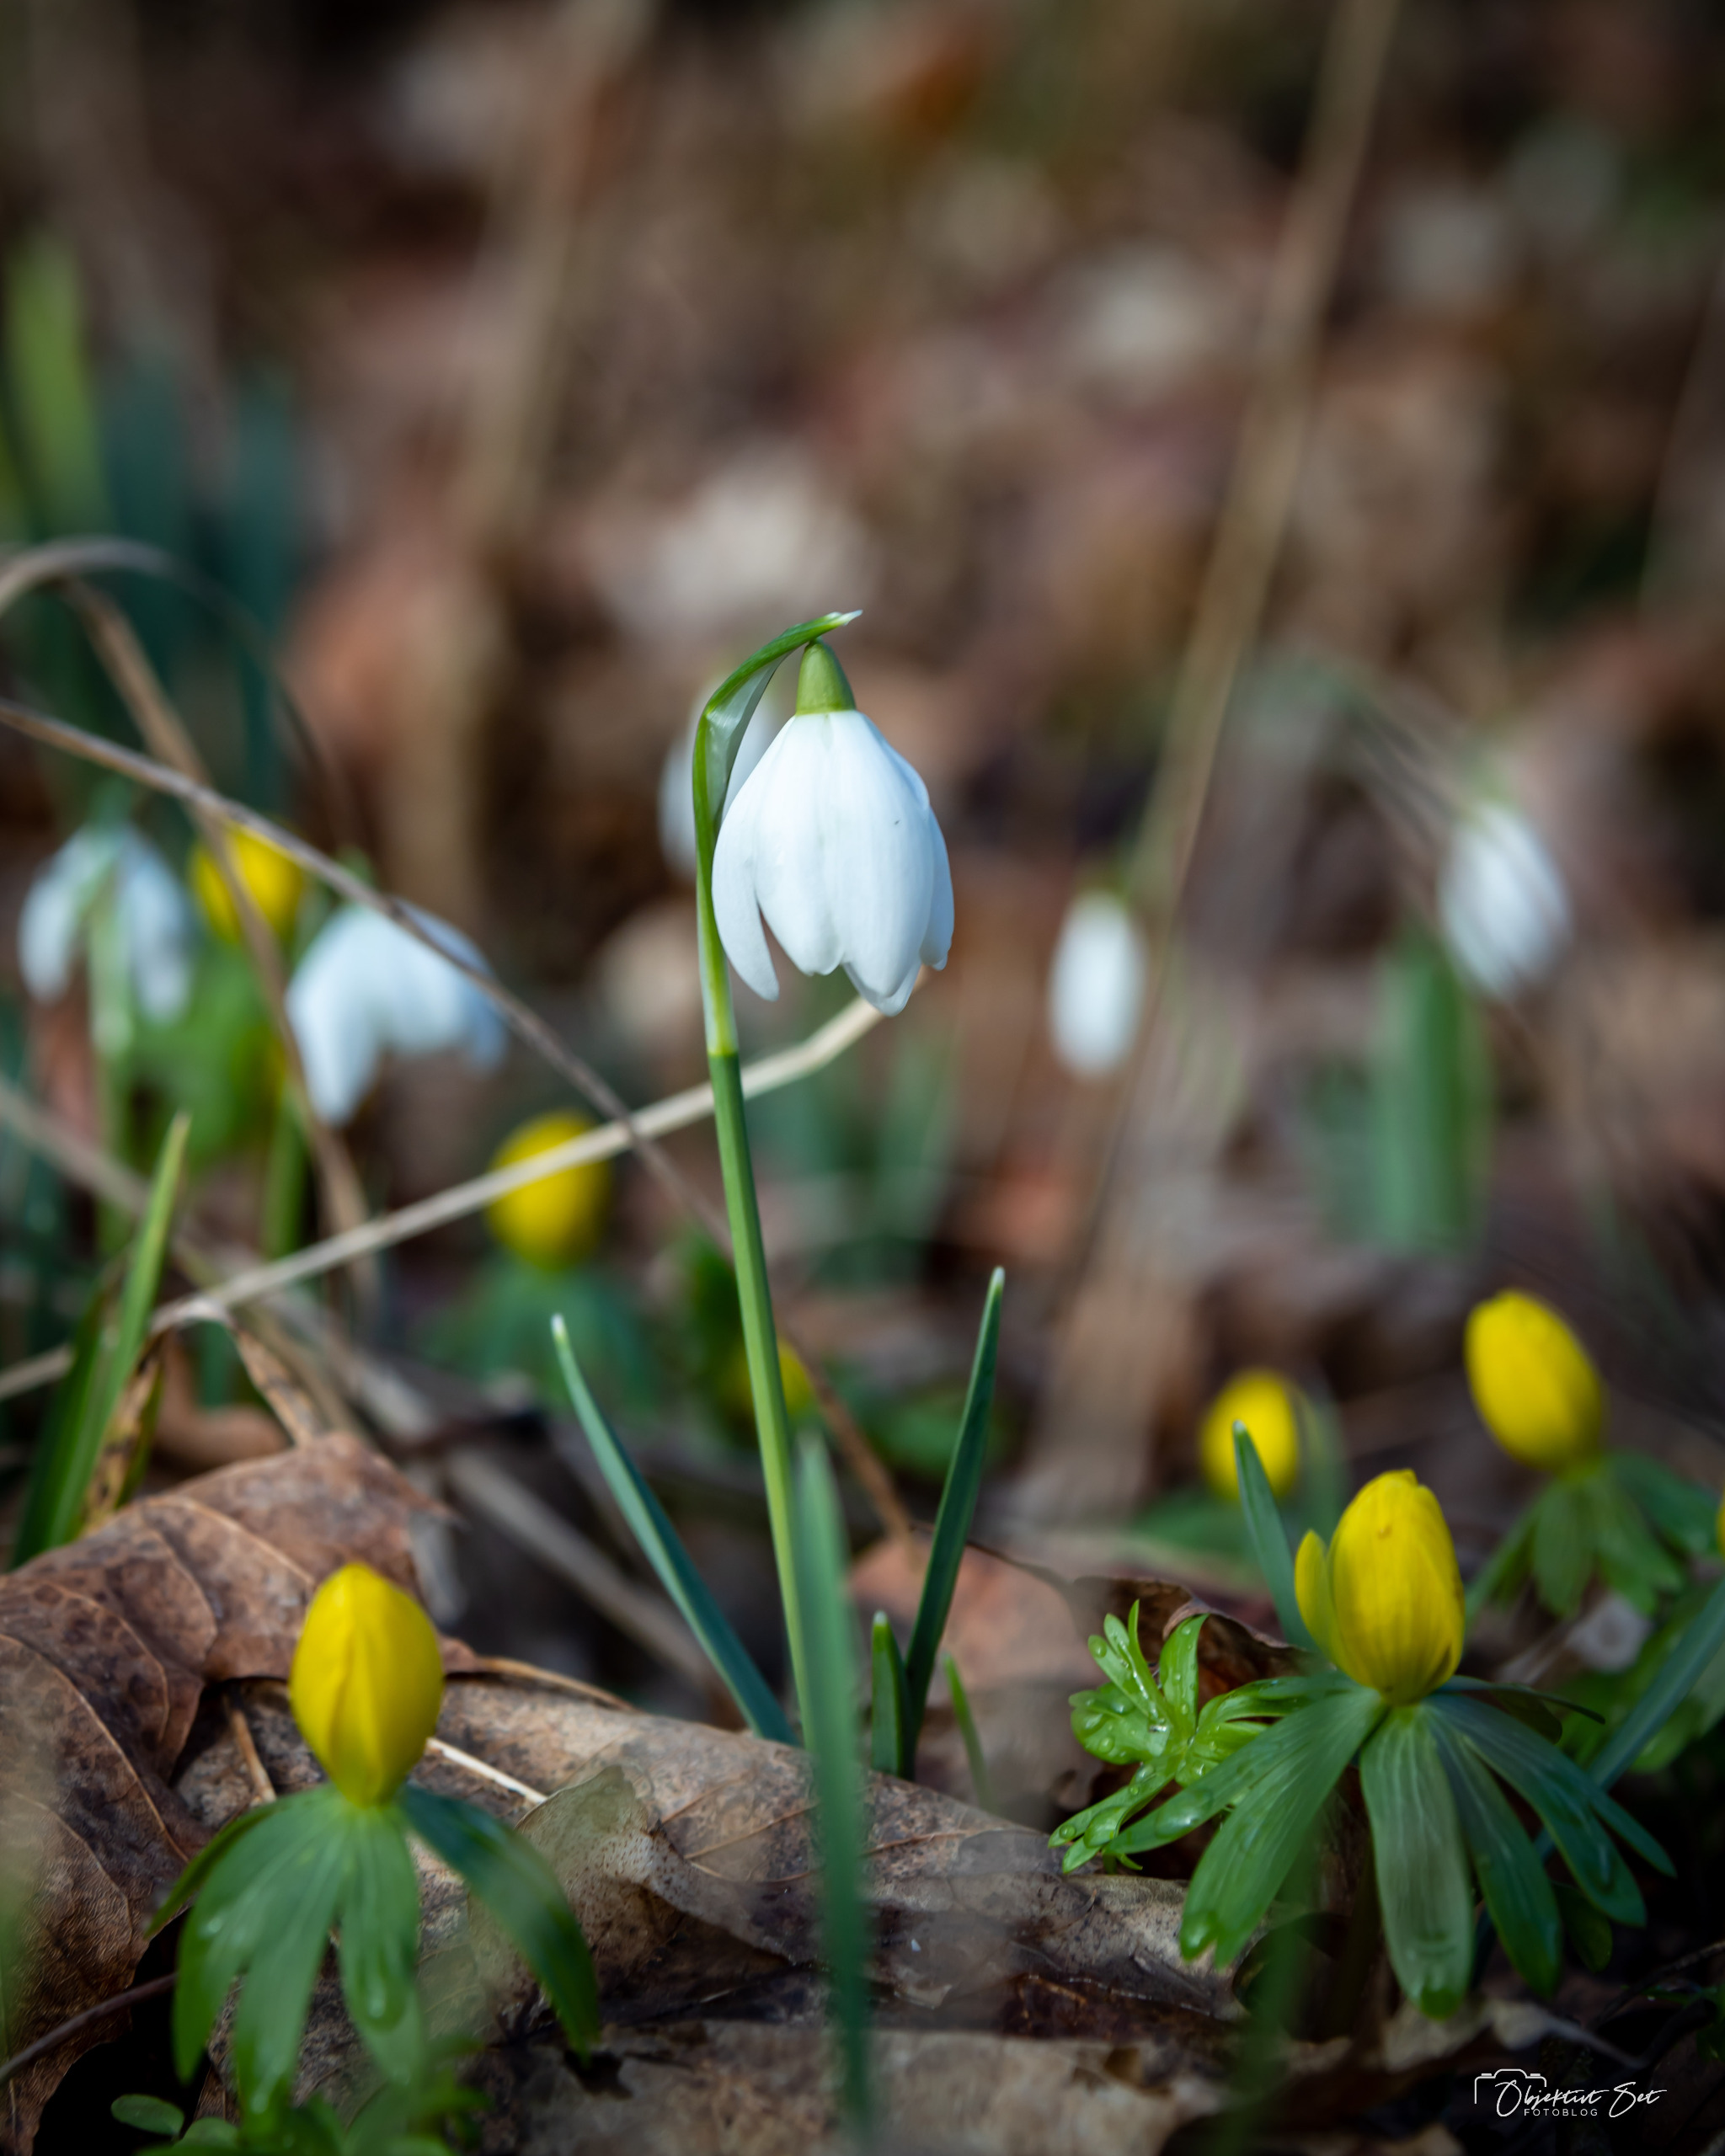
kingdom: Plantae
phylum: Tracheophyta
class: Liliopsida
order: Asparagales
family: Amaryllidaceae
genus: Galanthus
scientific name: Galanthus nivalis
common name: Vintergæk
